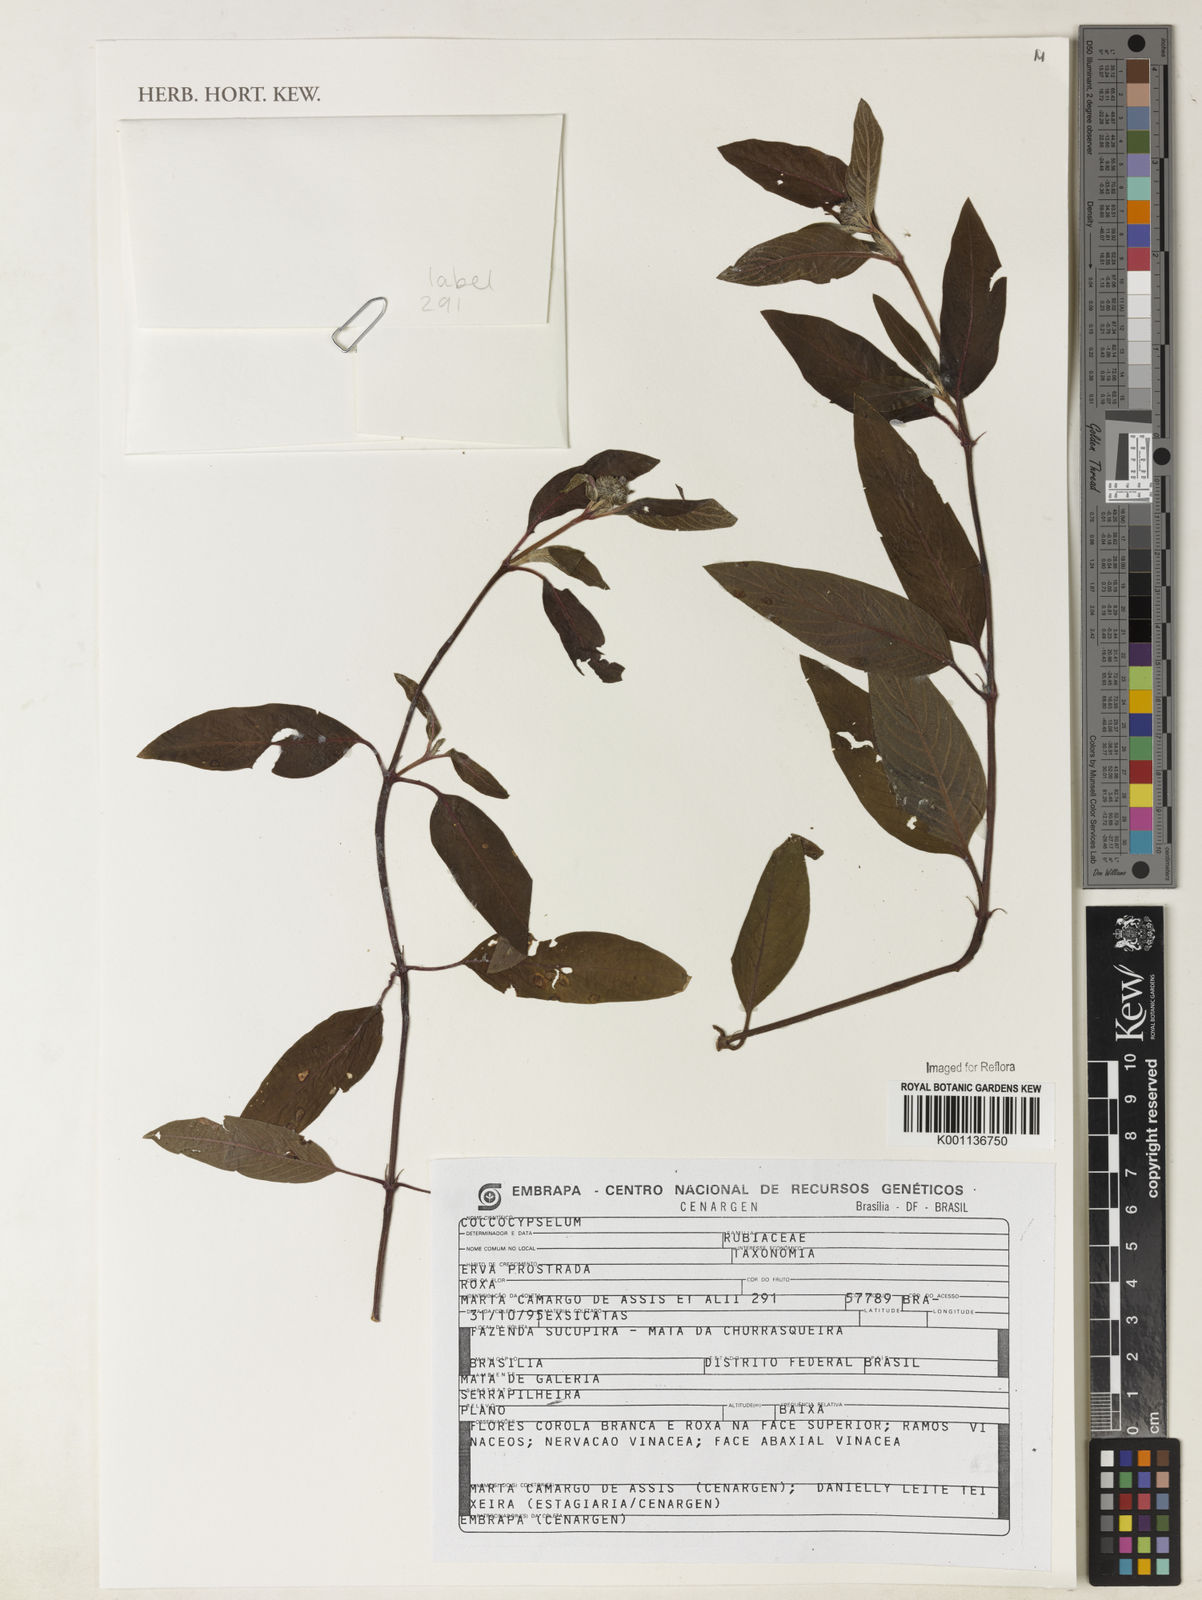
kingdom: Plantae
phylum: Tracheophyta
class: Magnoliopsida
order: Gentianales
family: Rubiaceae
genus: Coccocypselum
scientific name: Coccocypselum
